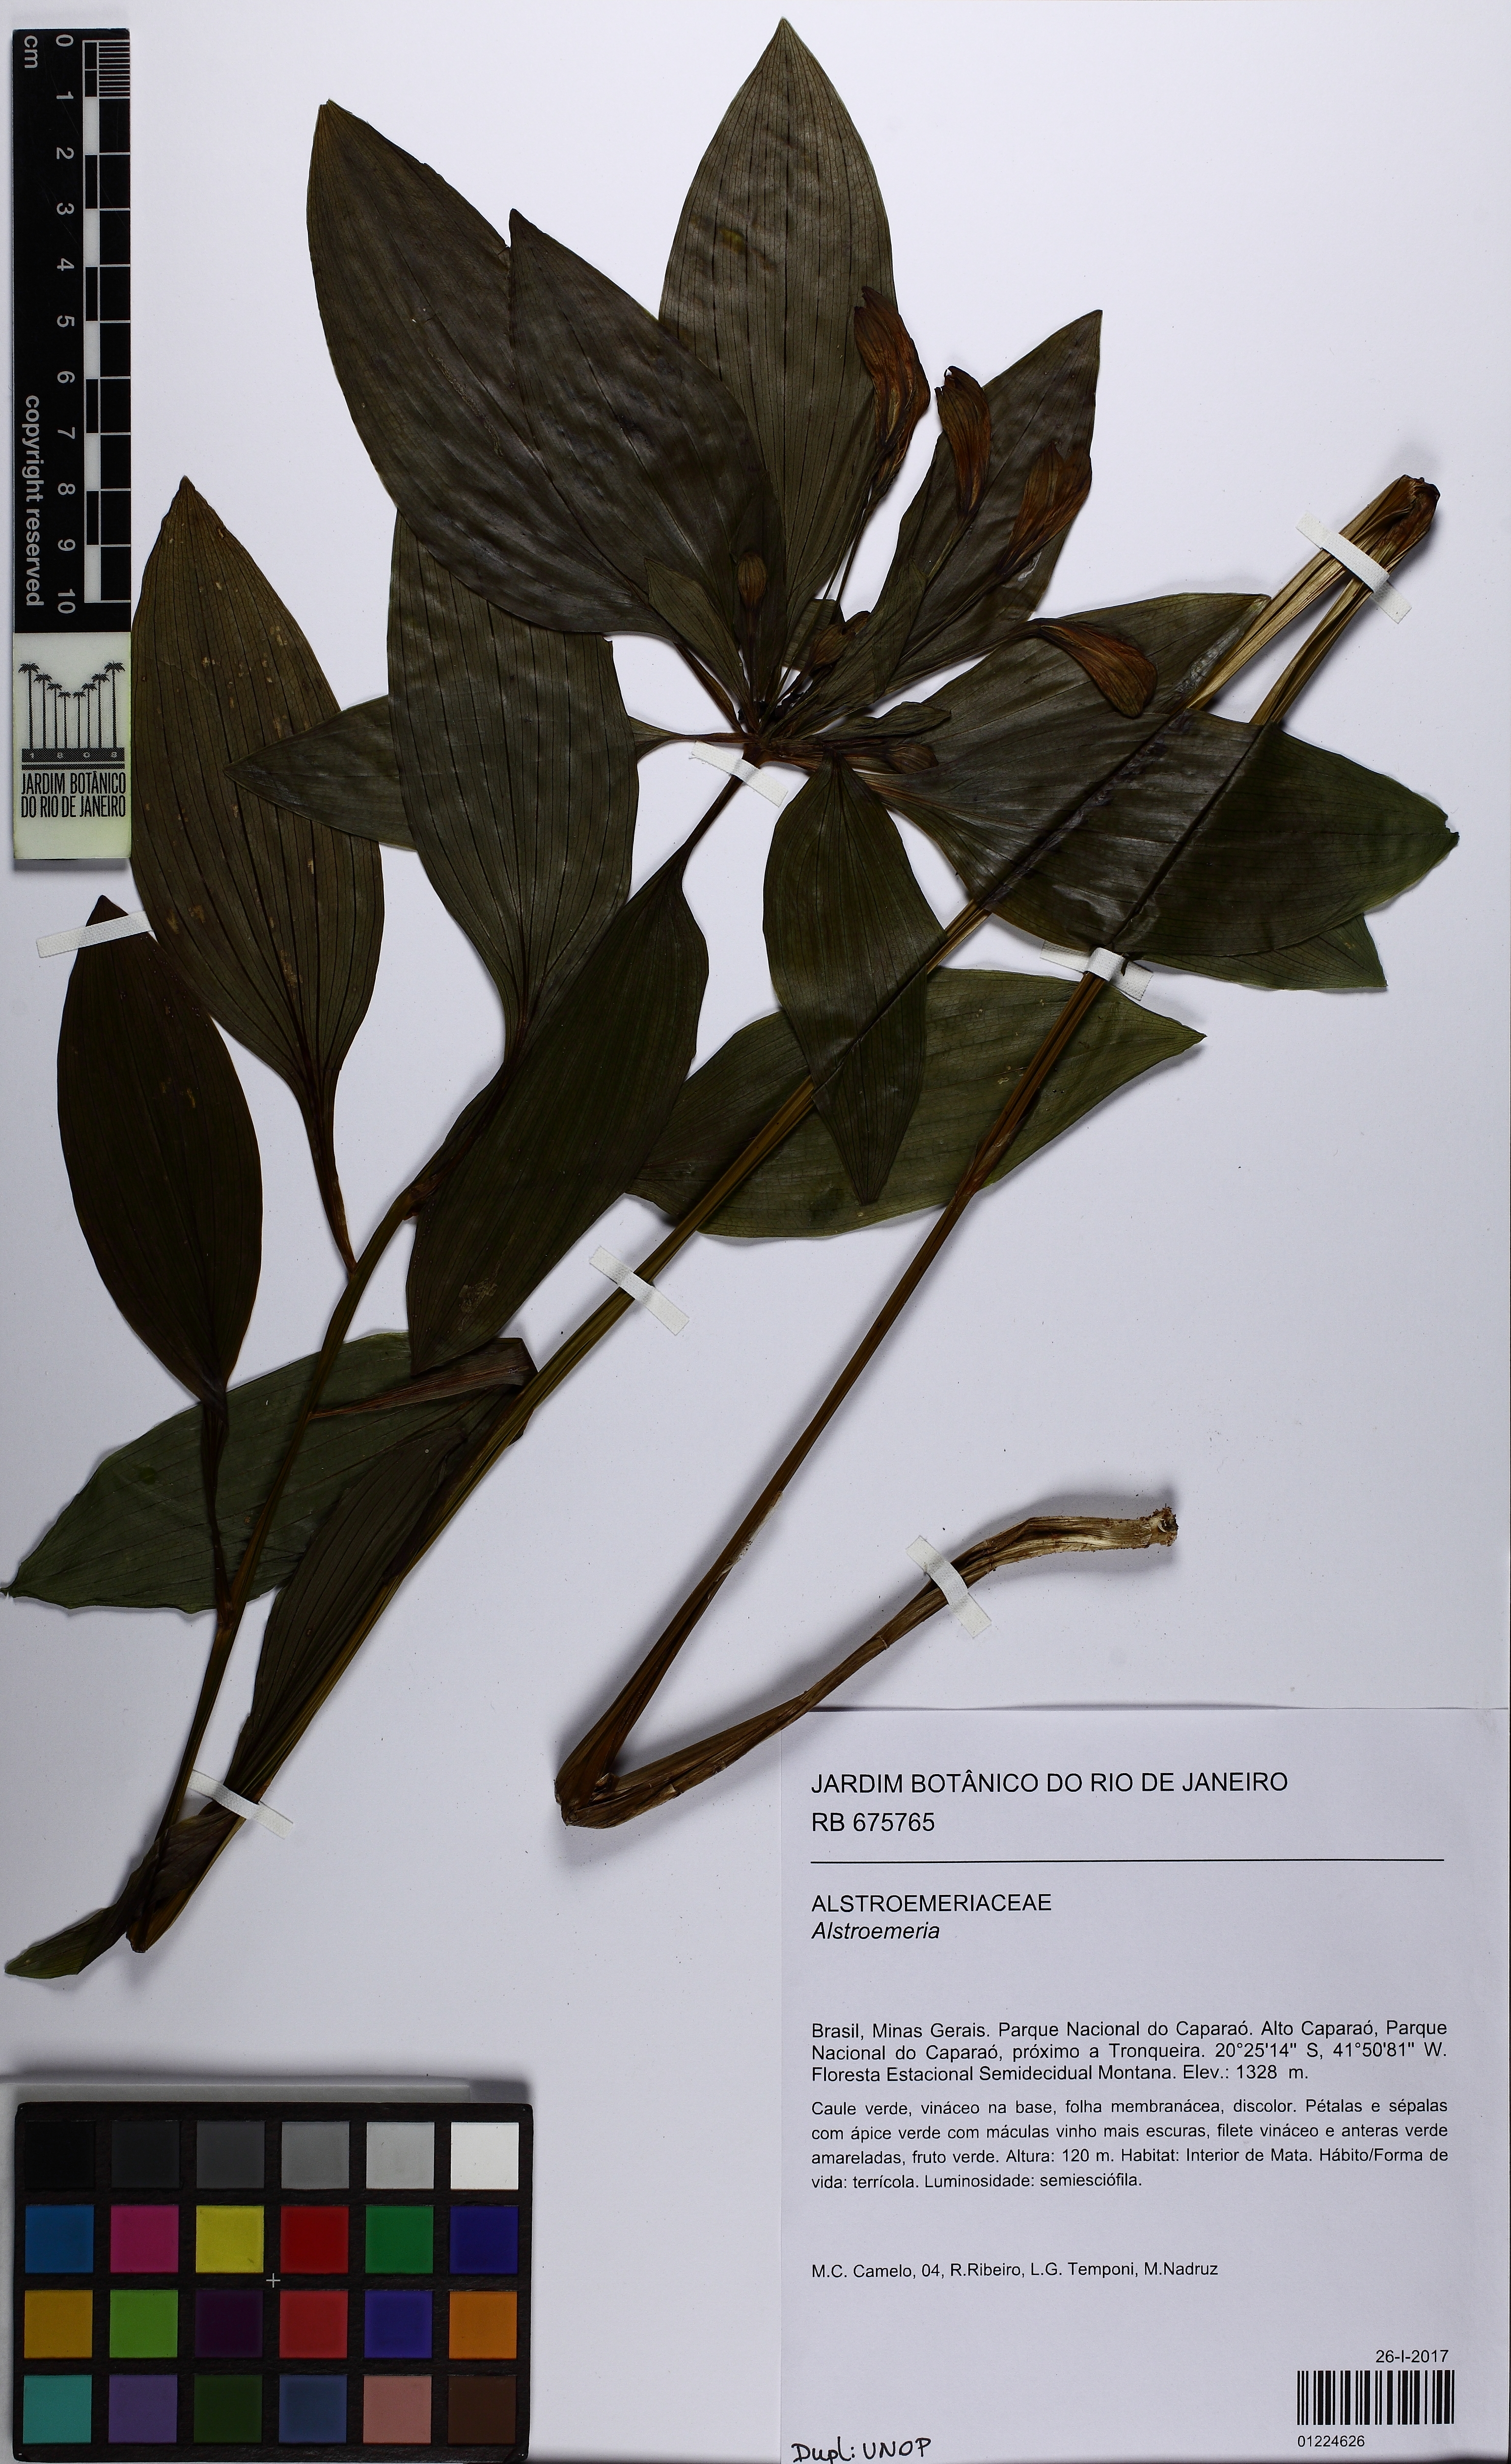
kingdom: Plantae
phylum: Tracheophyta
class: Liliopsida
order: Liliales
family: Alstroemeriaceae
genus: Alstroemeria
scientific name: Alstroemeria
